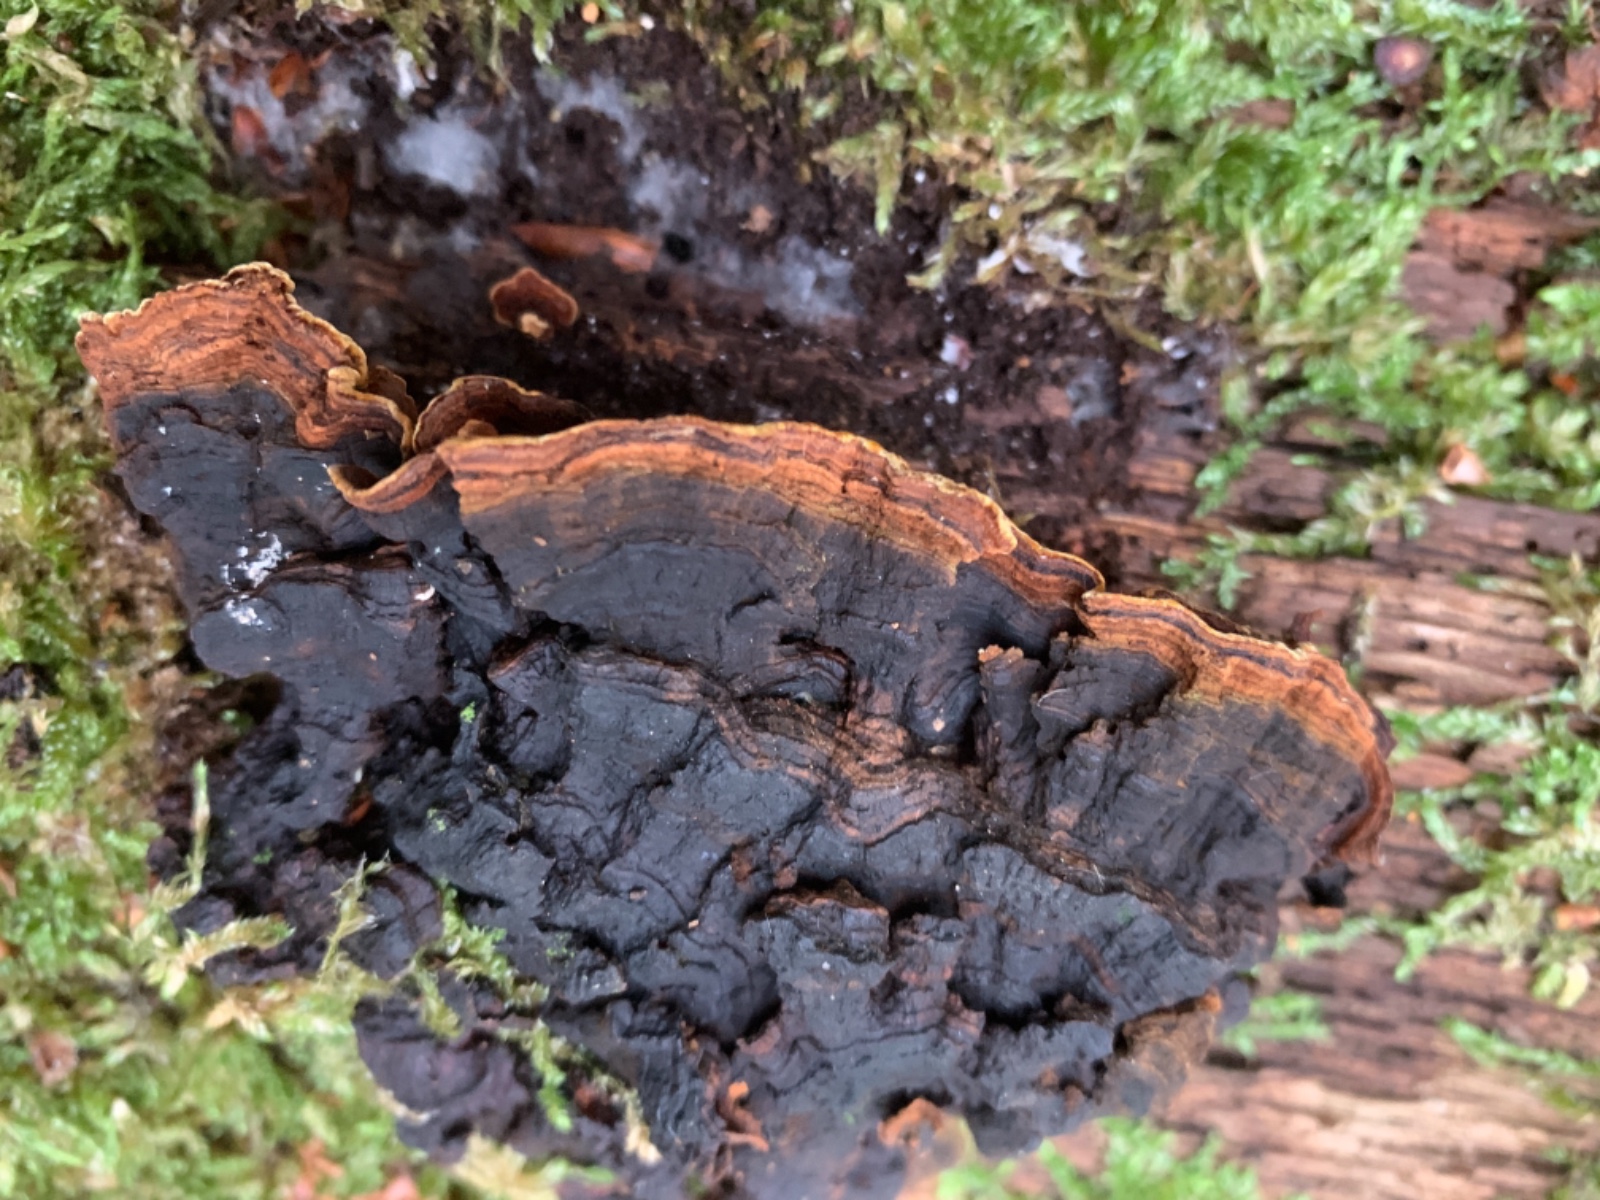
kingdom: Fungi
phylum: Basidiomycota
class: Agaricomycetes
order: Hymenochaetales
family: Hymenochaetaceae
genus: Hymenochaete
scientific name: Hymenochaete rubiginosa
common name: stiv ruslædersvamp
